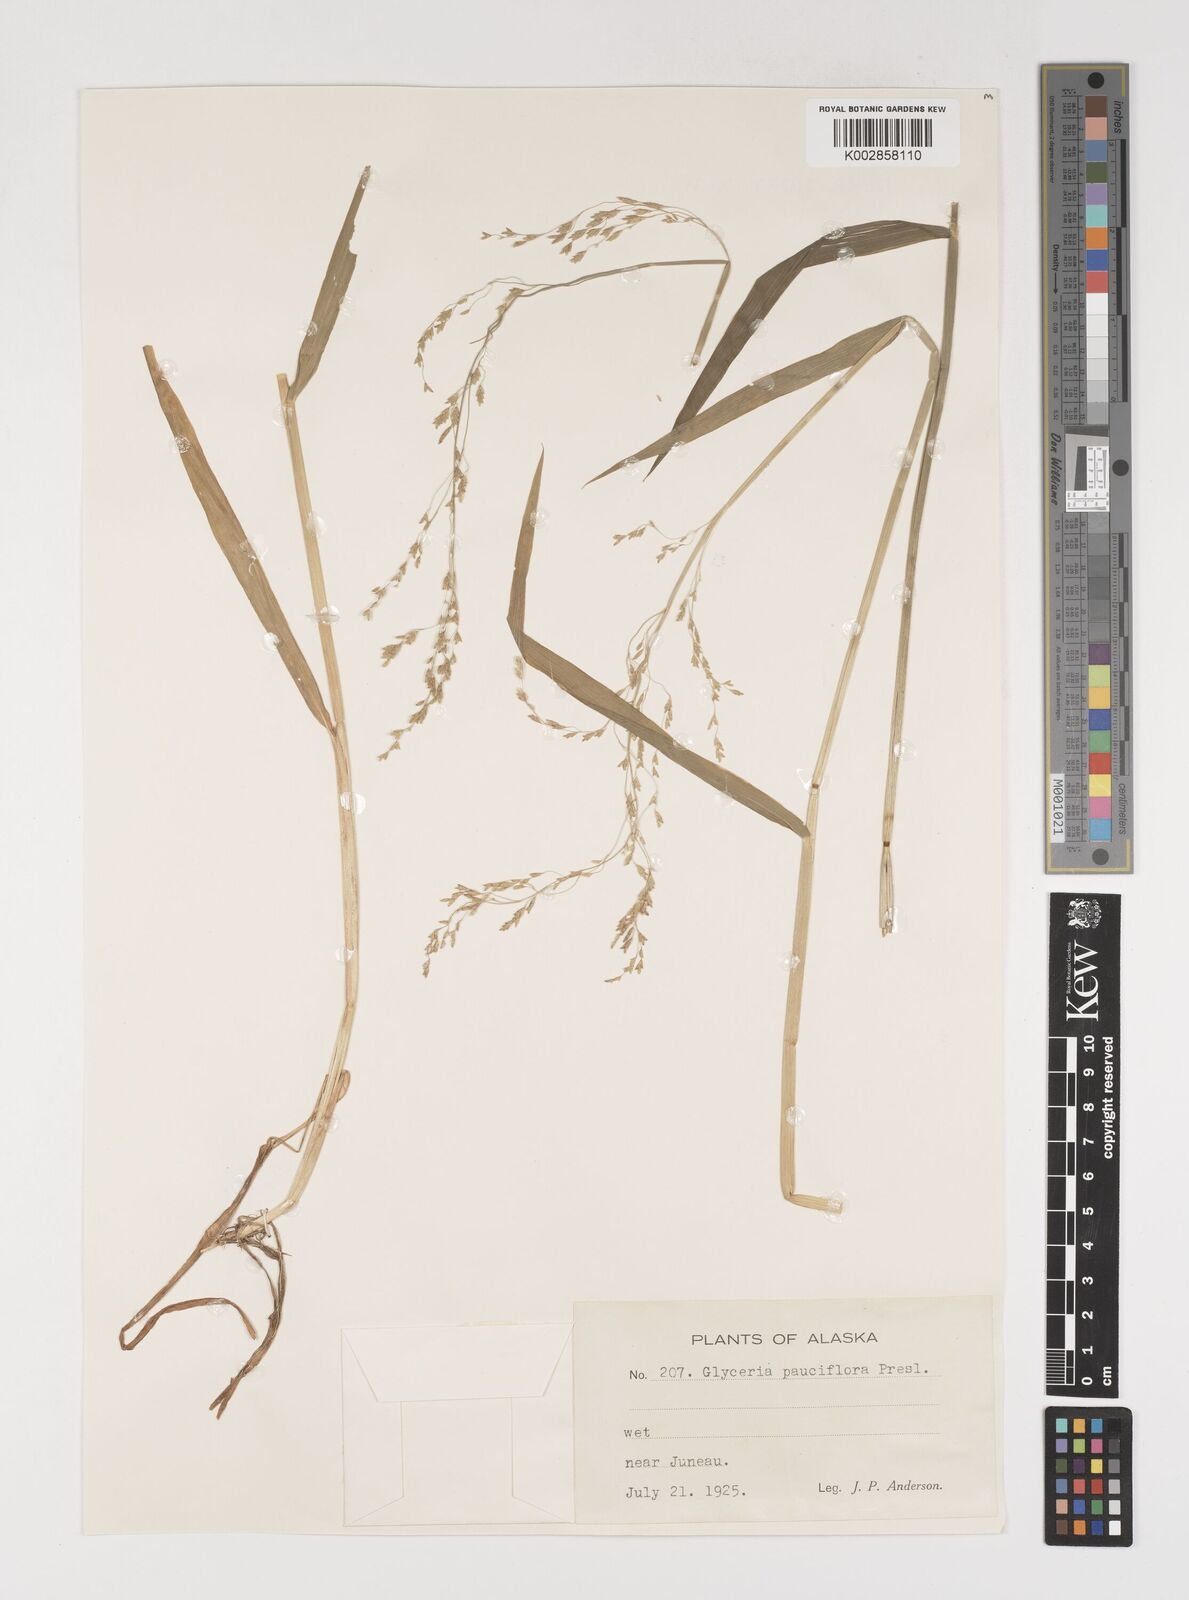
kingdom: Plantae
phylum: Tracheophyta
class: Liliopsida
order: Poales
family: Poaceae
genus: Torreyochloa
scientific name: Torreyochloa pallida
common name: Pale false mannagrass
